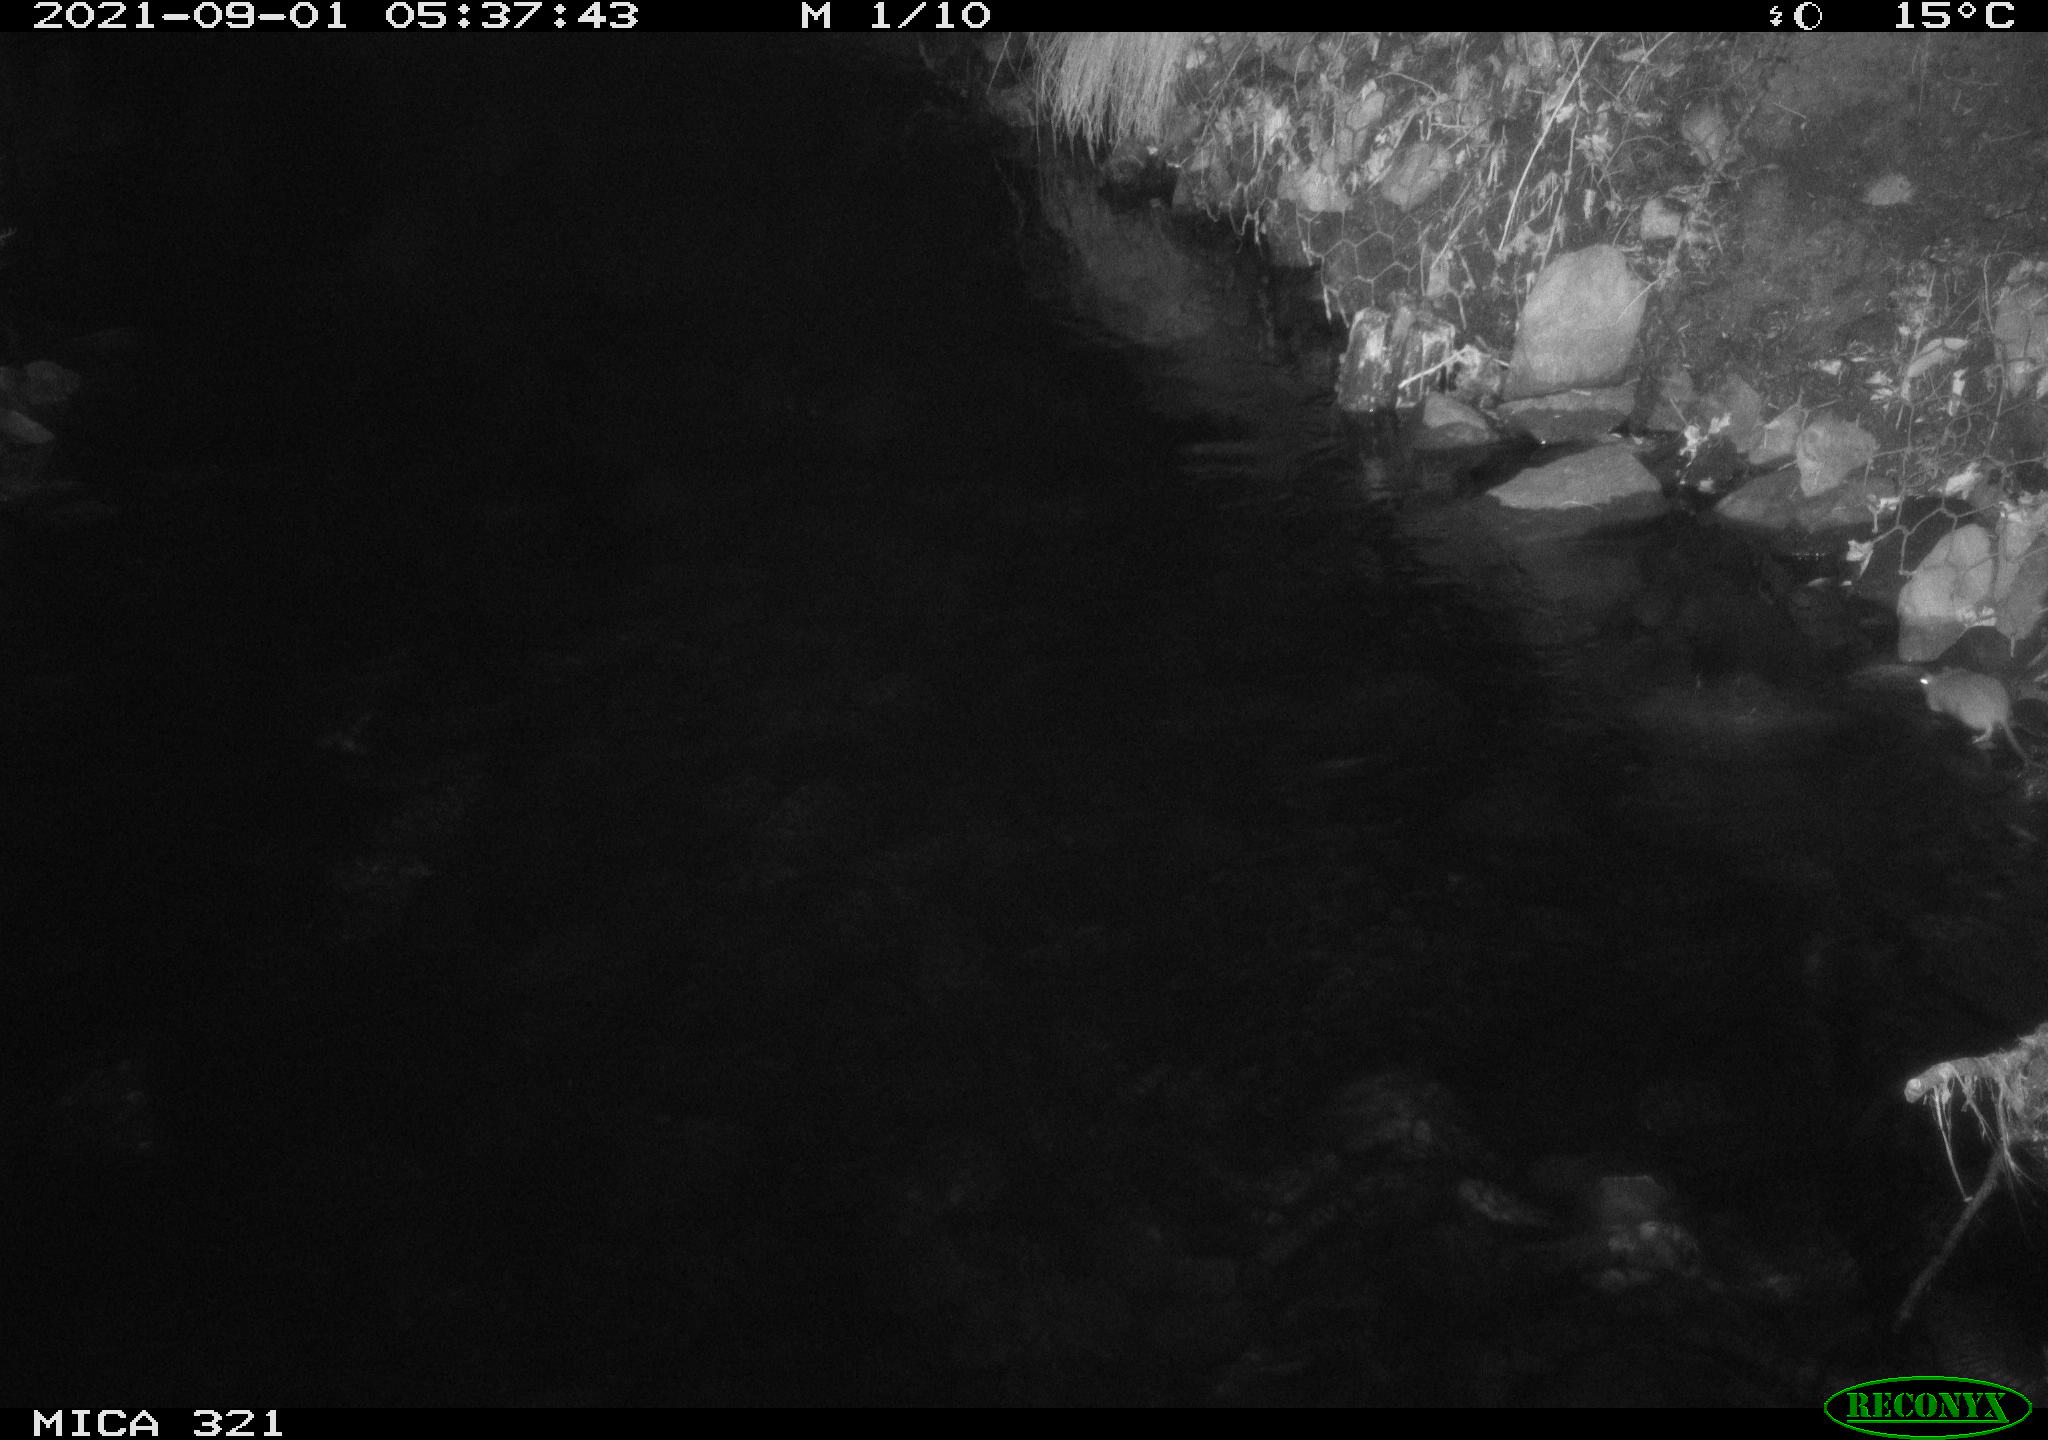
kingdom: Animalia
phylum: Chordata
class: Mammalia
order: Rodentia
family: Muridae
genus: Rattus
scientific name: Rattus norvegicus
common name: Brown rat
